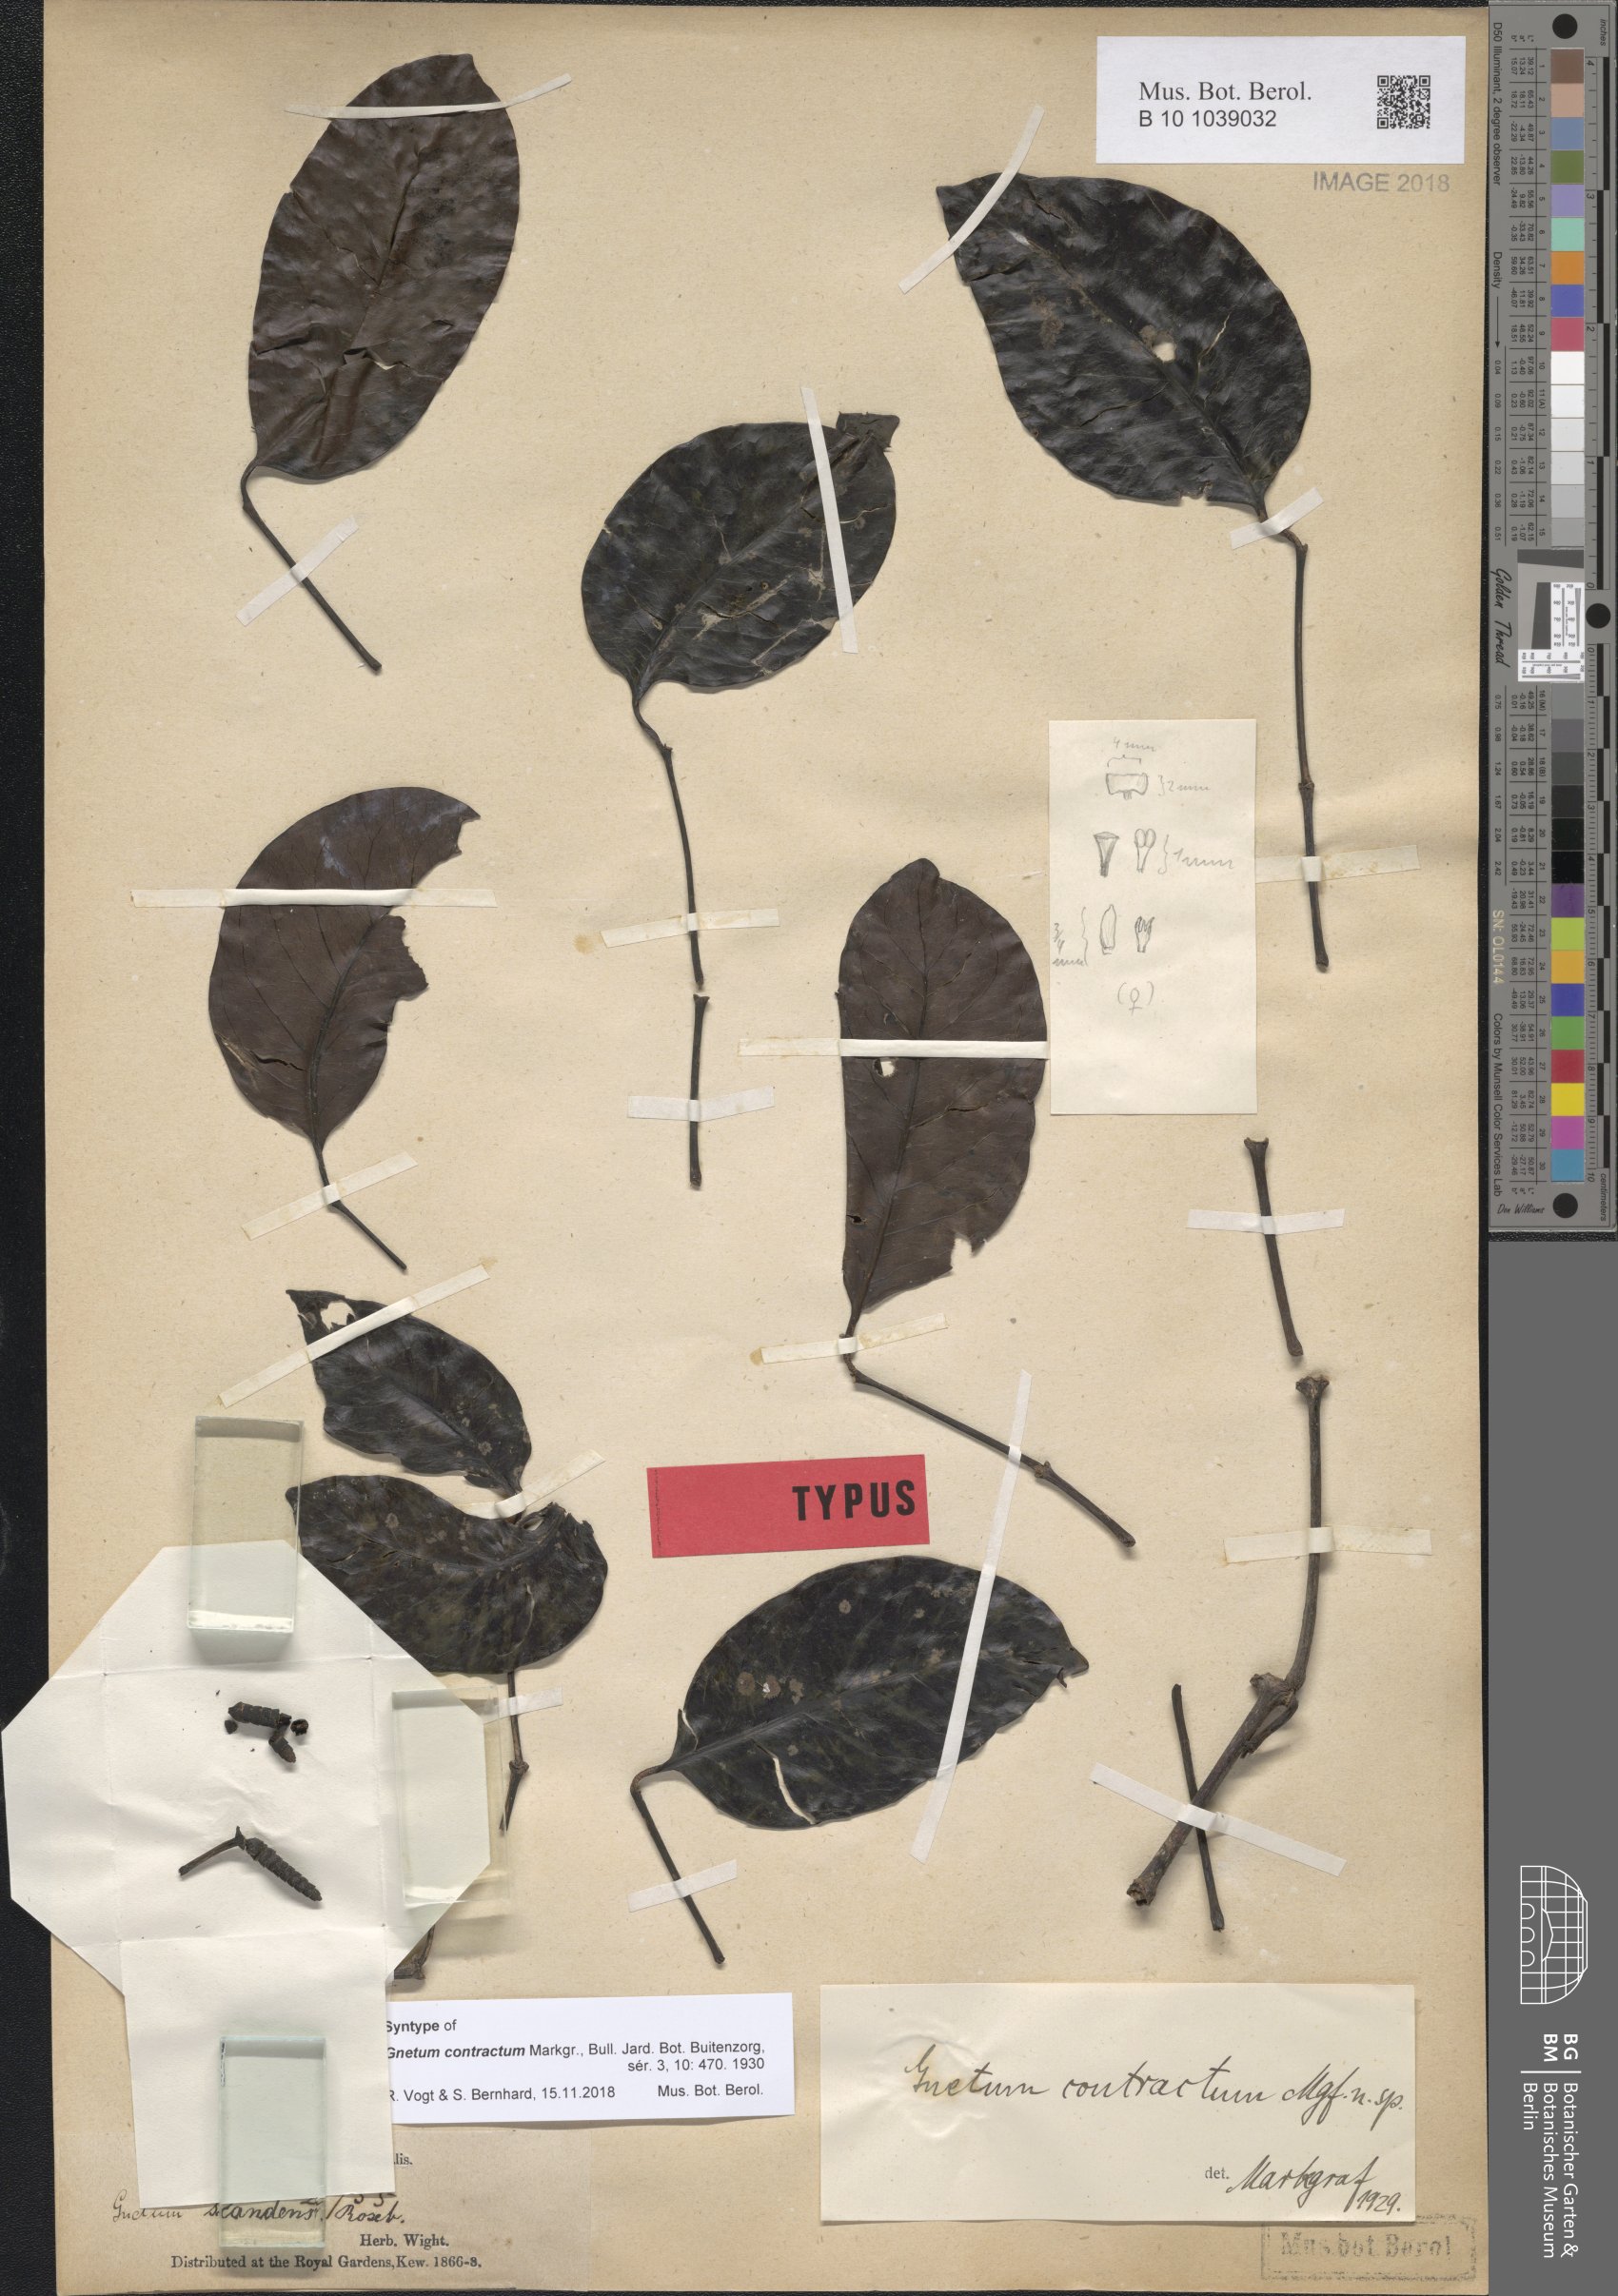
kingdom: Plantae
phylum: Tracheophyta
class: Gnetopsida
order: Gnetales
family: Gnetaceae
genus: Gnetum
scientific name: Gnetum contractum
